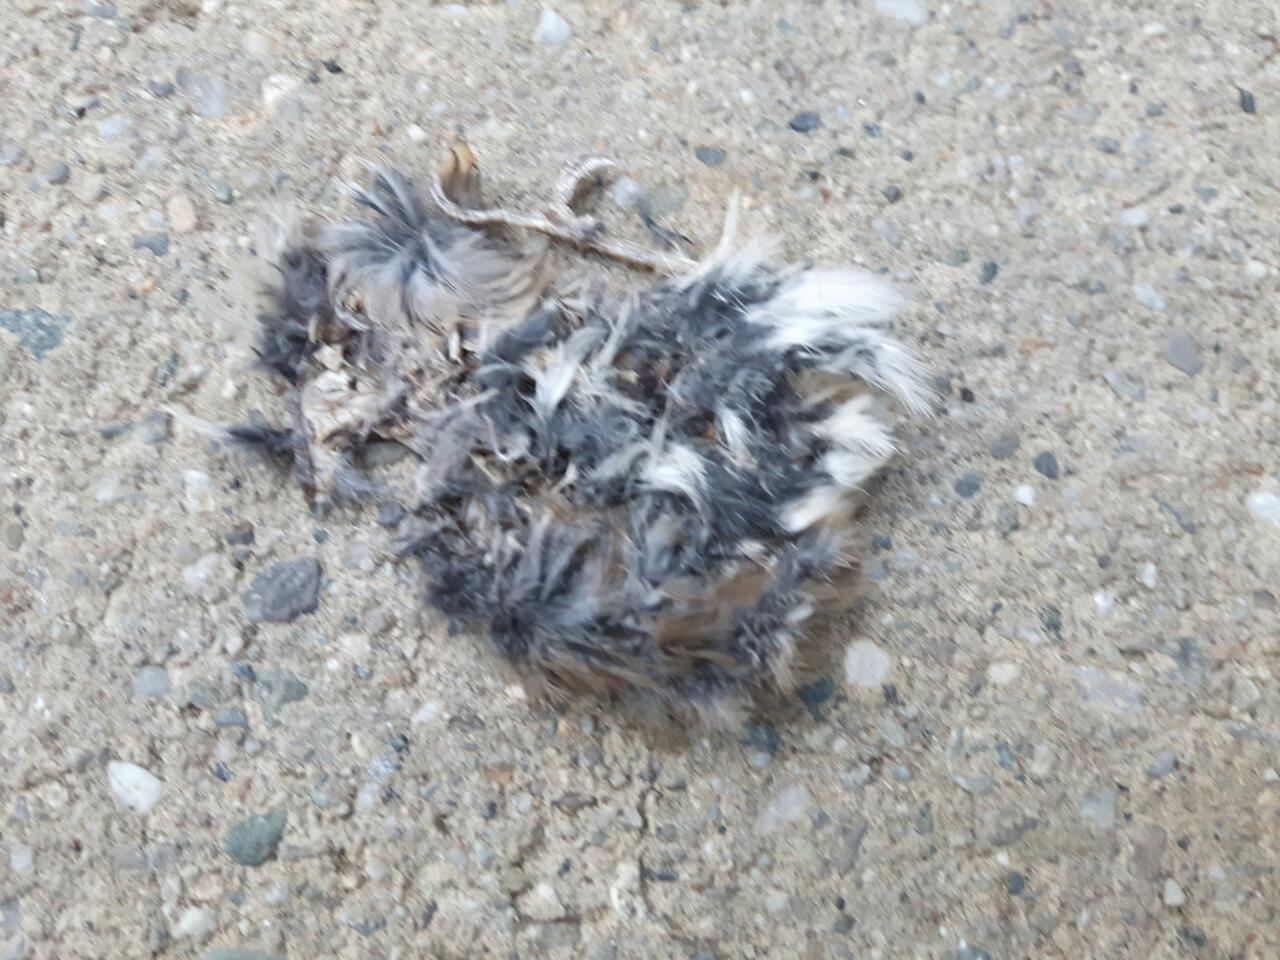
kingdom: Animalia
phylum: Chordata
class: Aves
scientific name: Aves
